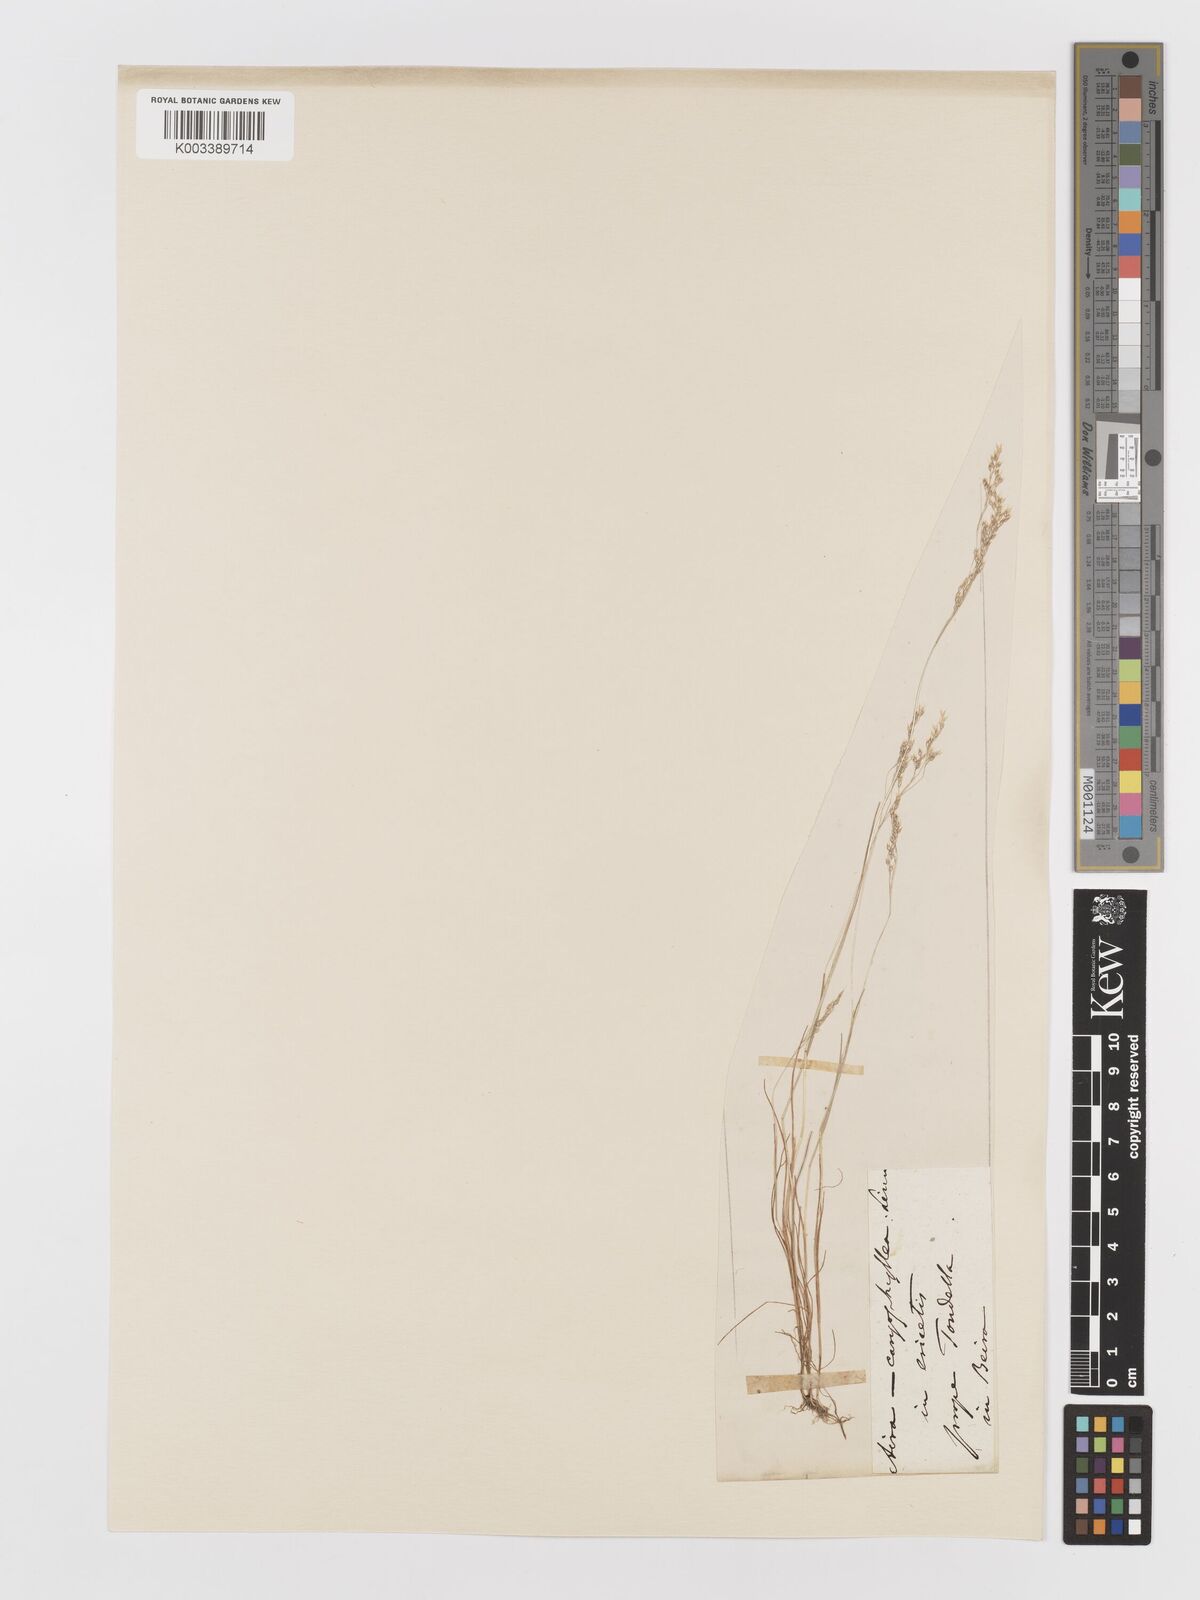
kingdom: Plantae
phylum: Tracheophyta
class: Liliopsida
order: Poales
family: Poaceae
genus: Aira
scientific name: Aira caryophyllea
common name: Silver hairgrass
